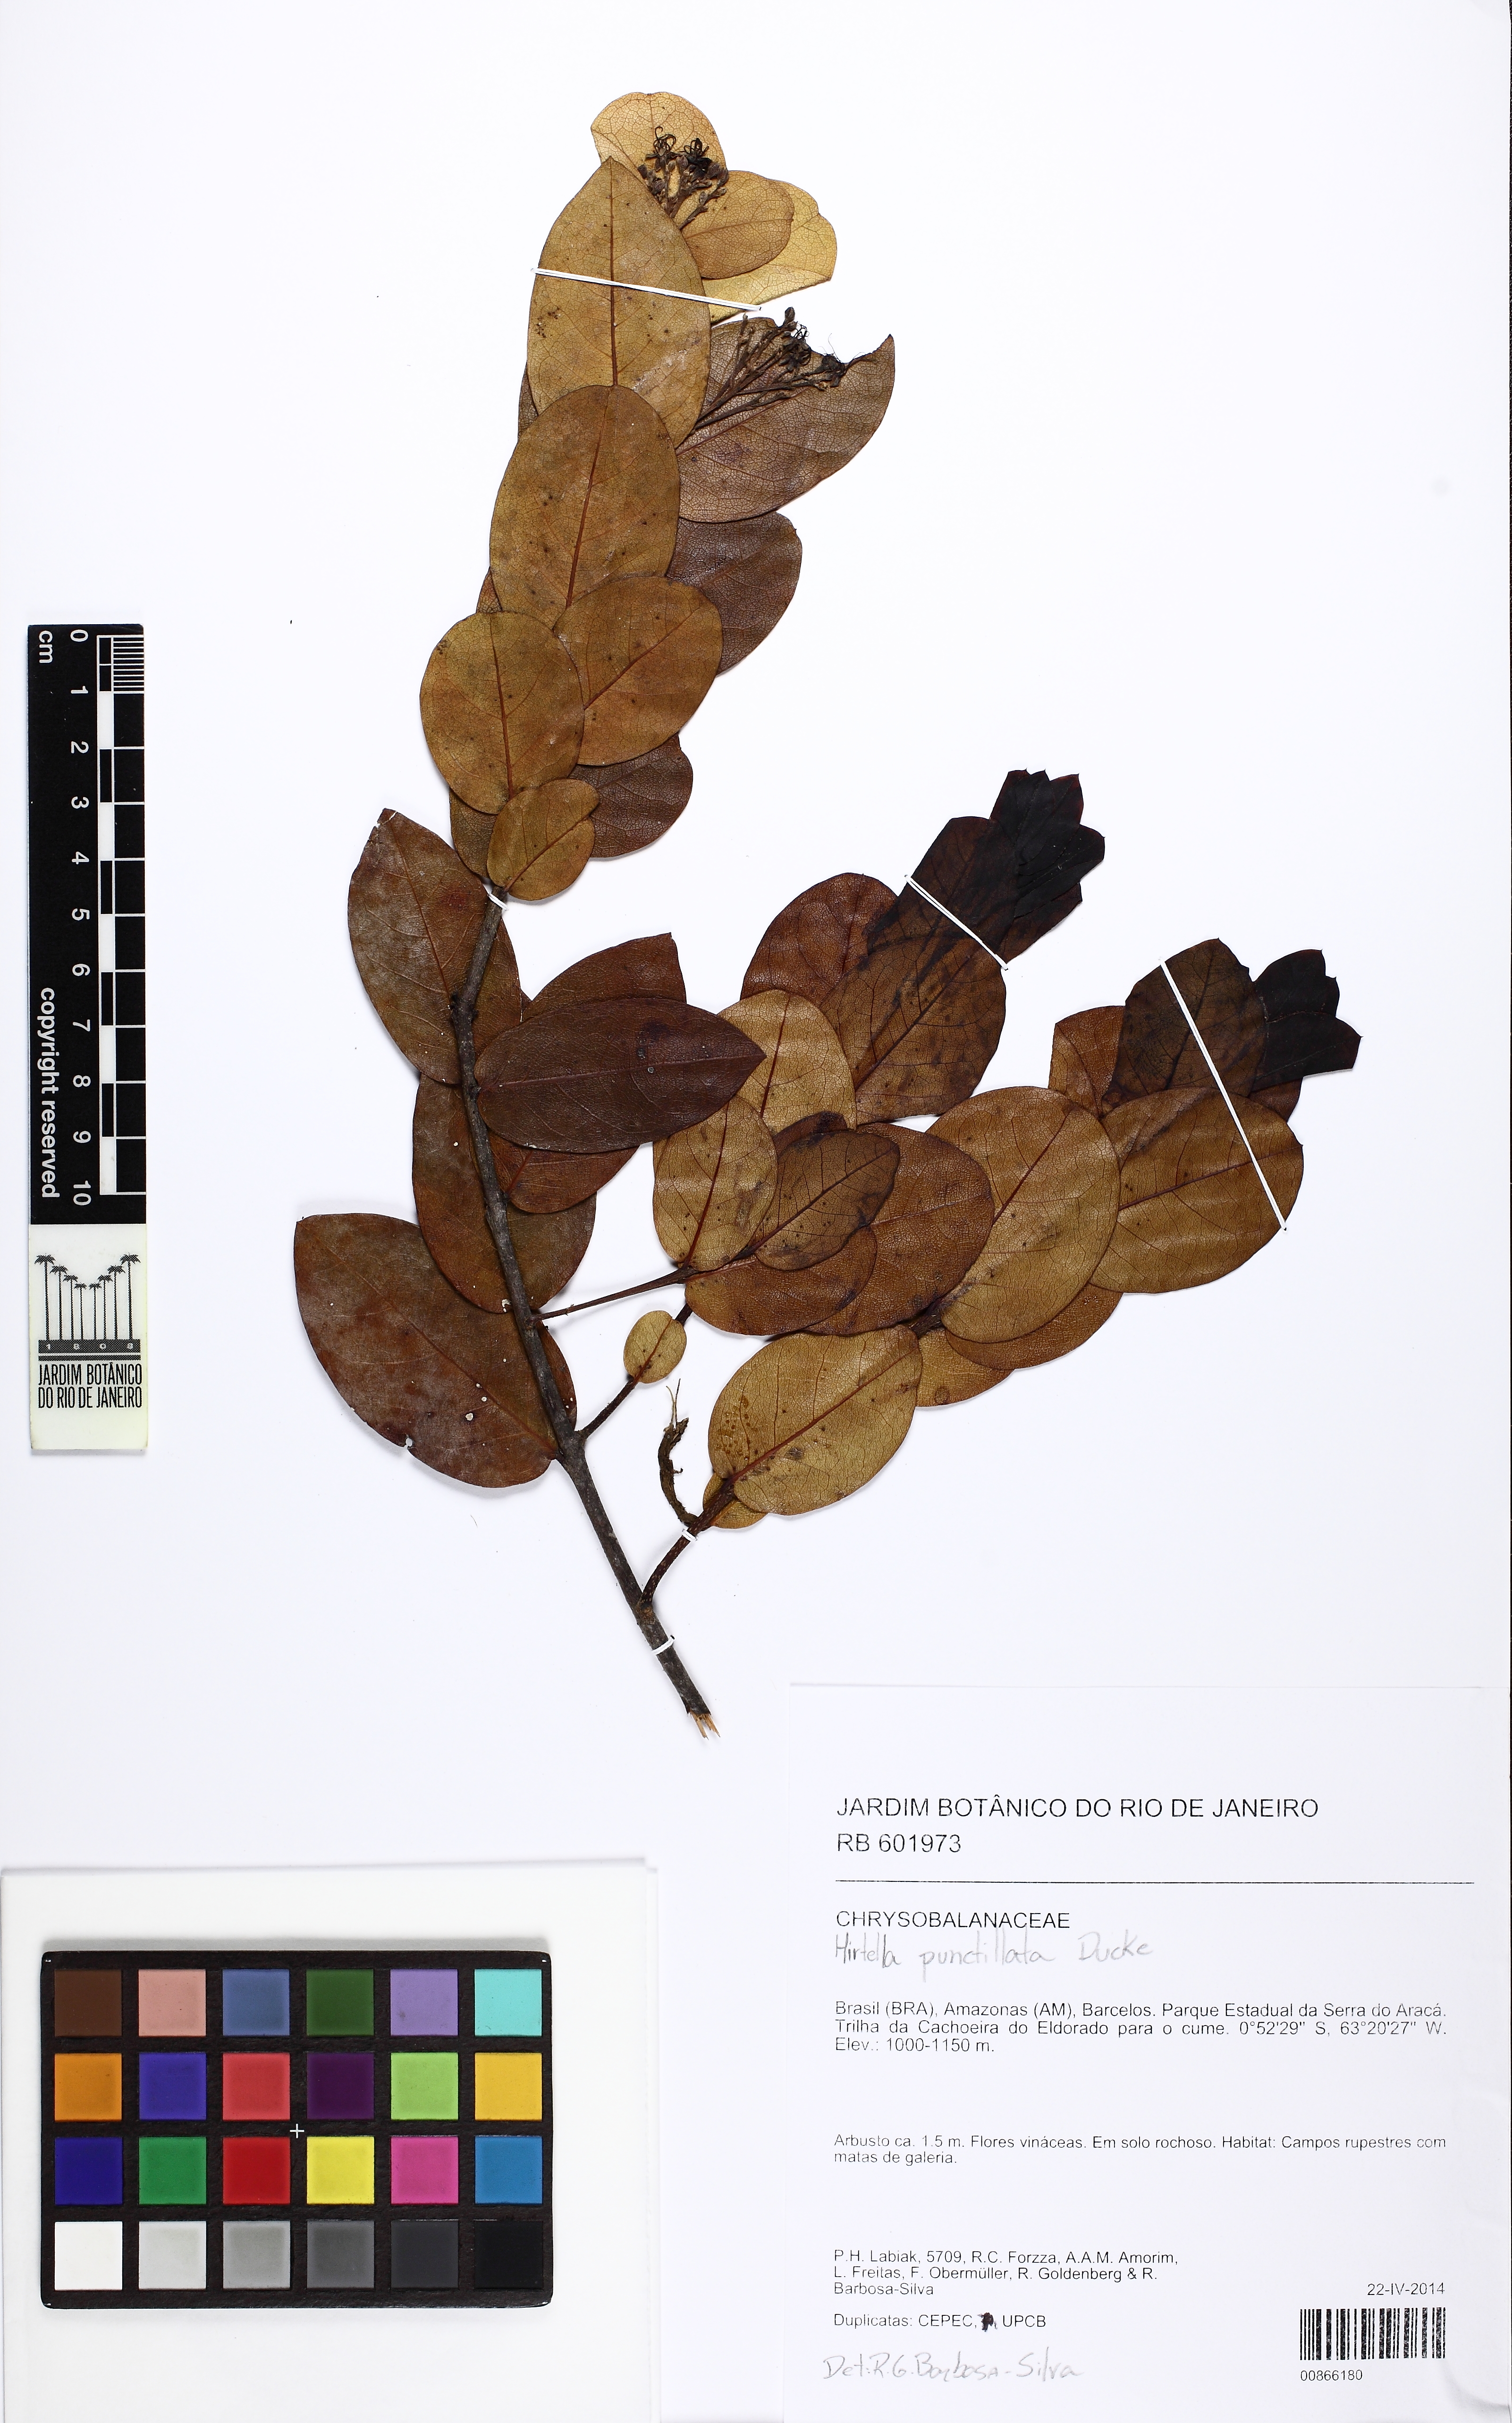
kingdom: Plantae
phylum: Tracheophyta
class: Magnoliopsida
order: Malpighiales
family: Chrysobalanaceae
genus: Hirtella
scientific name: Hirtella punctillata
